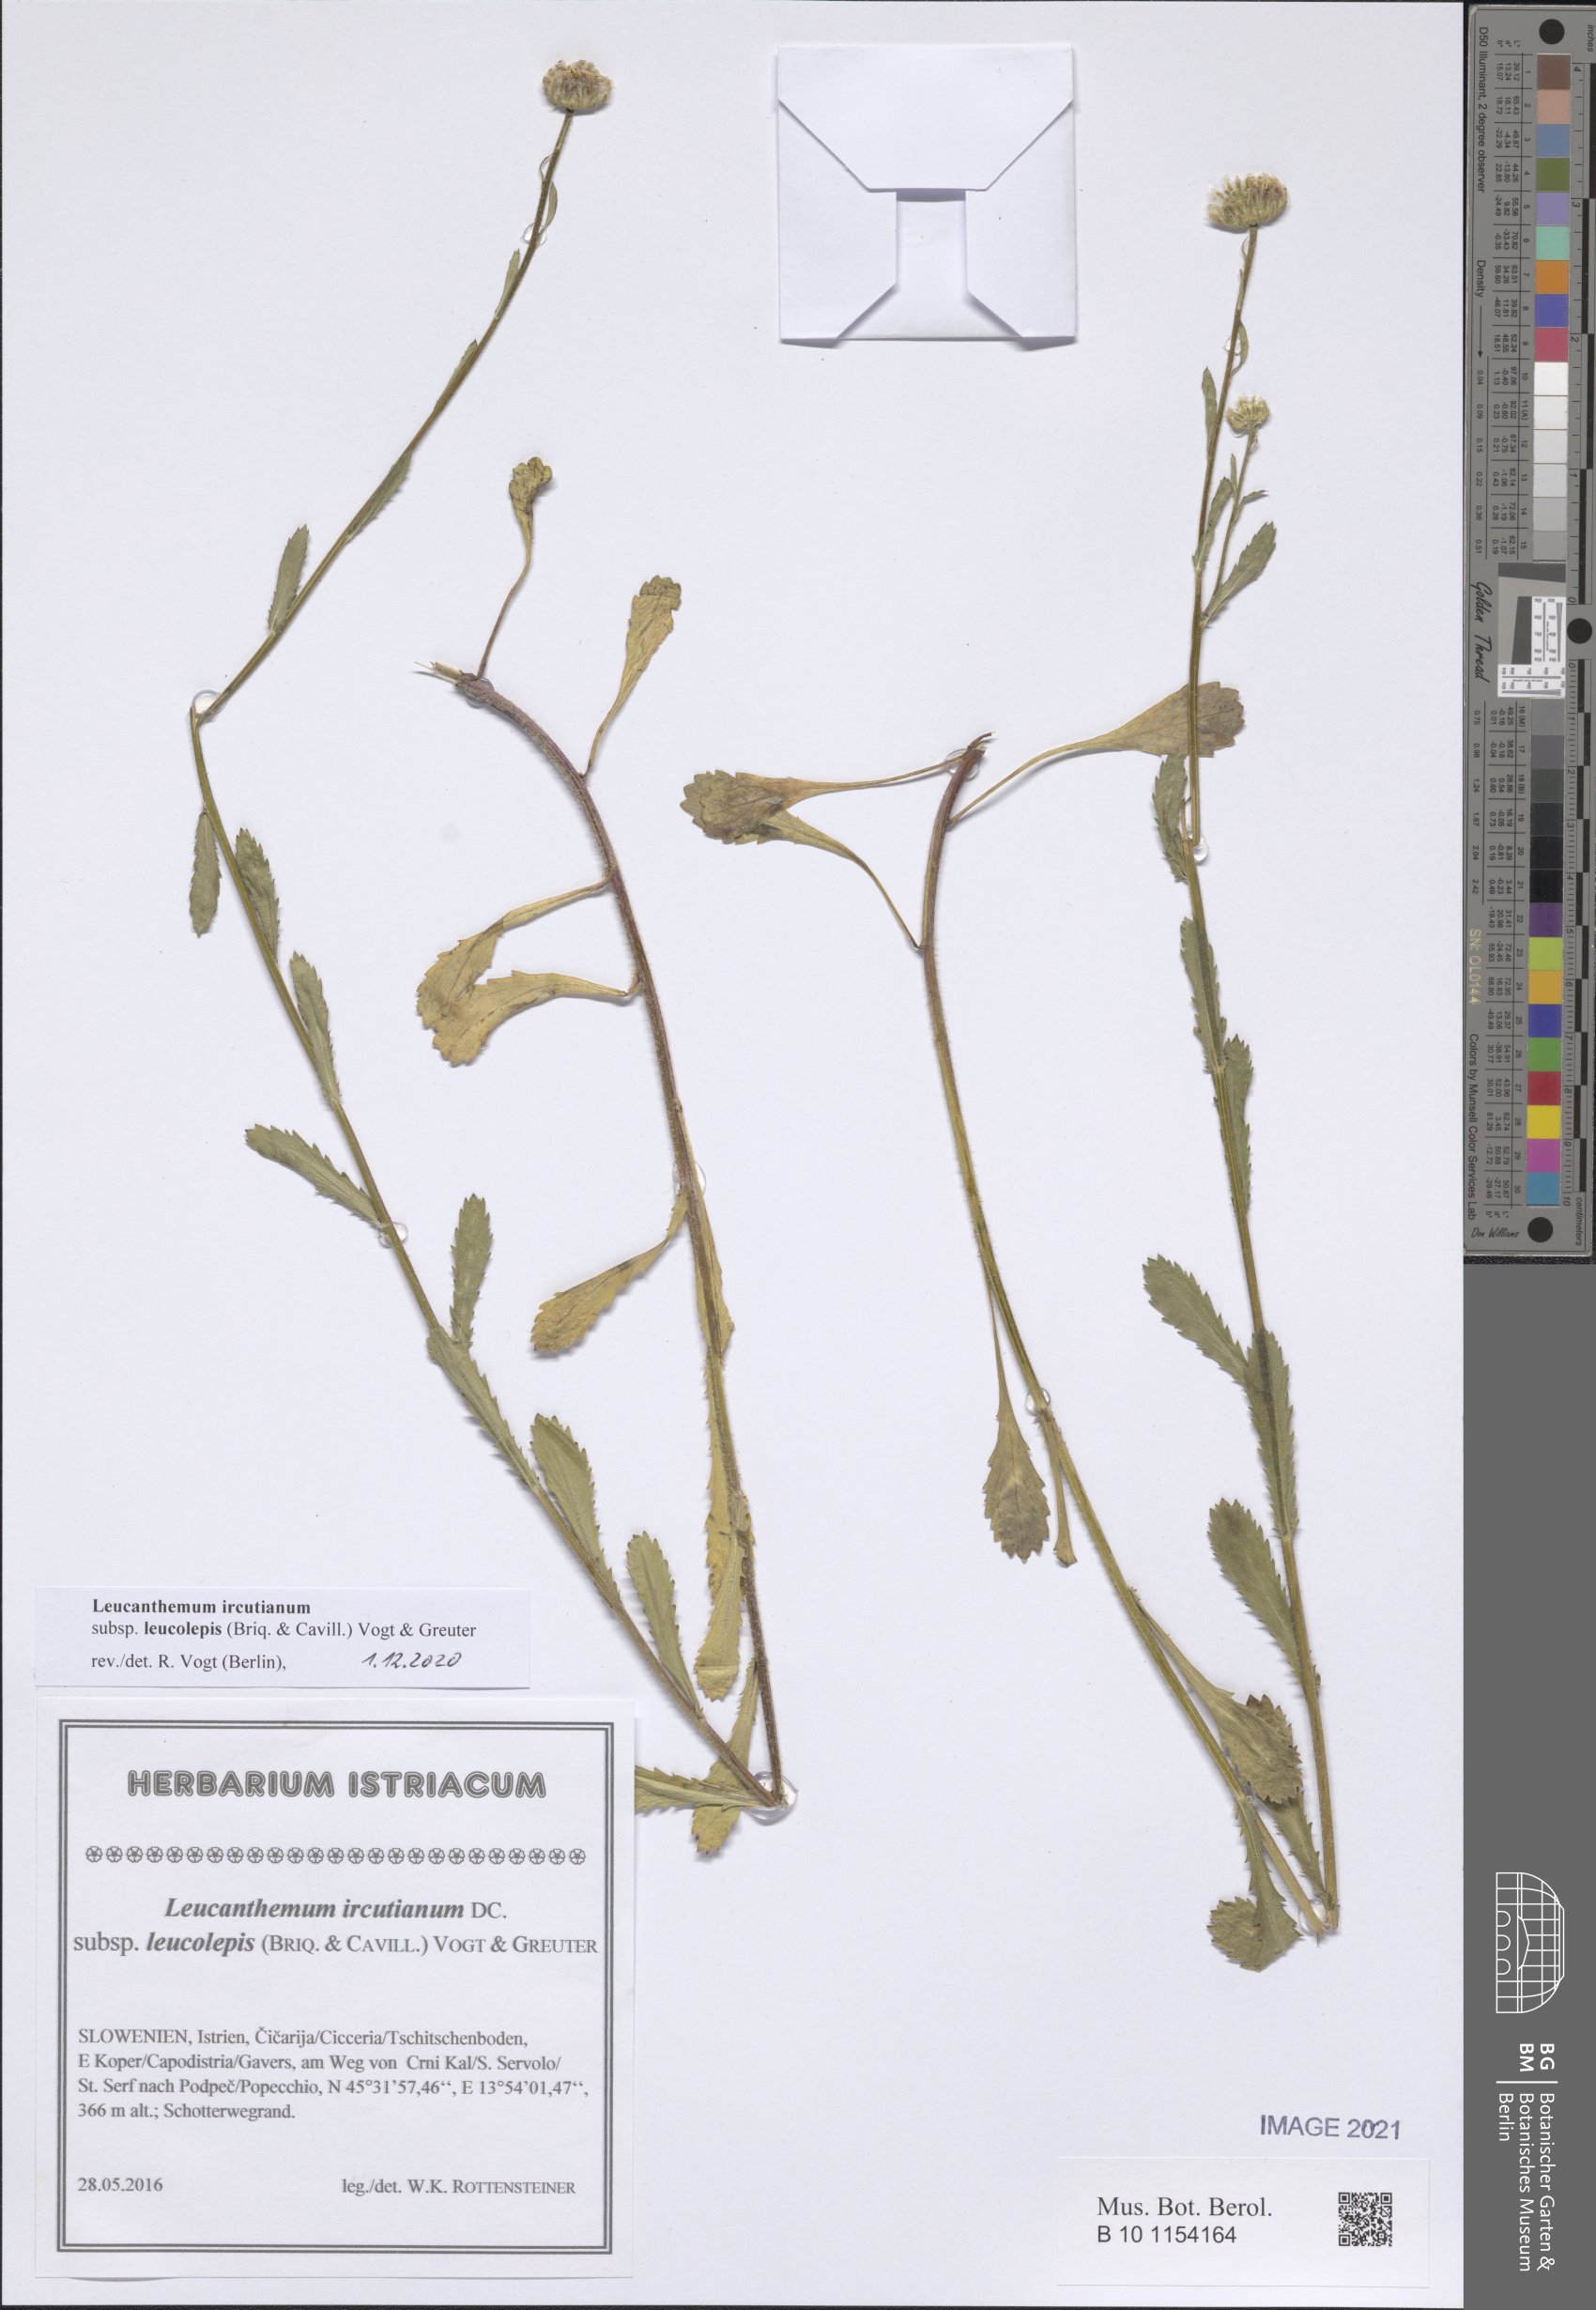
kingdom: Plantae
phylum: Tracheophyta
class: Magnoliopsida
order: Asterales
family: Asteraceae
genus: Leucanthemum
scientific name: Leucanthemum ircutianum
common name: Daisy
